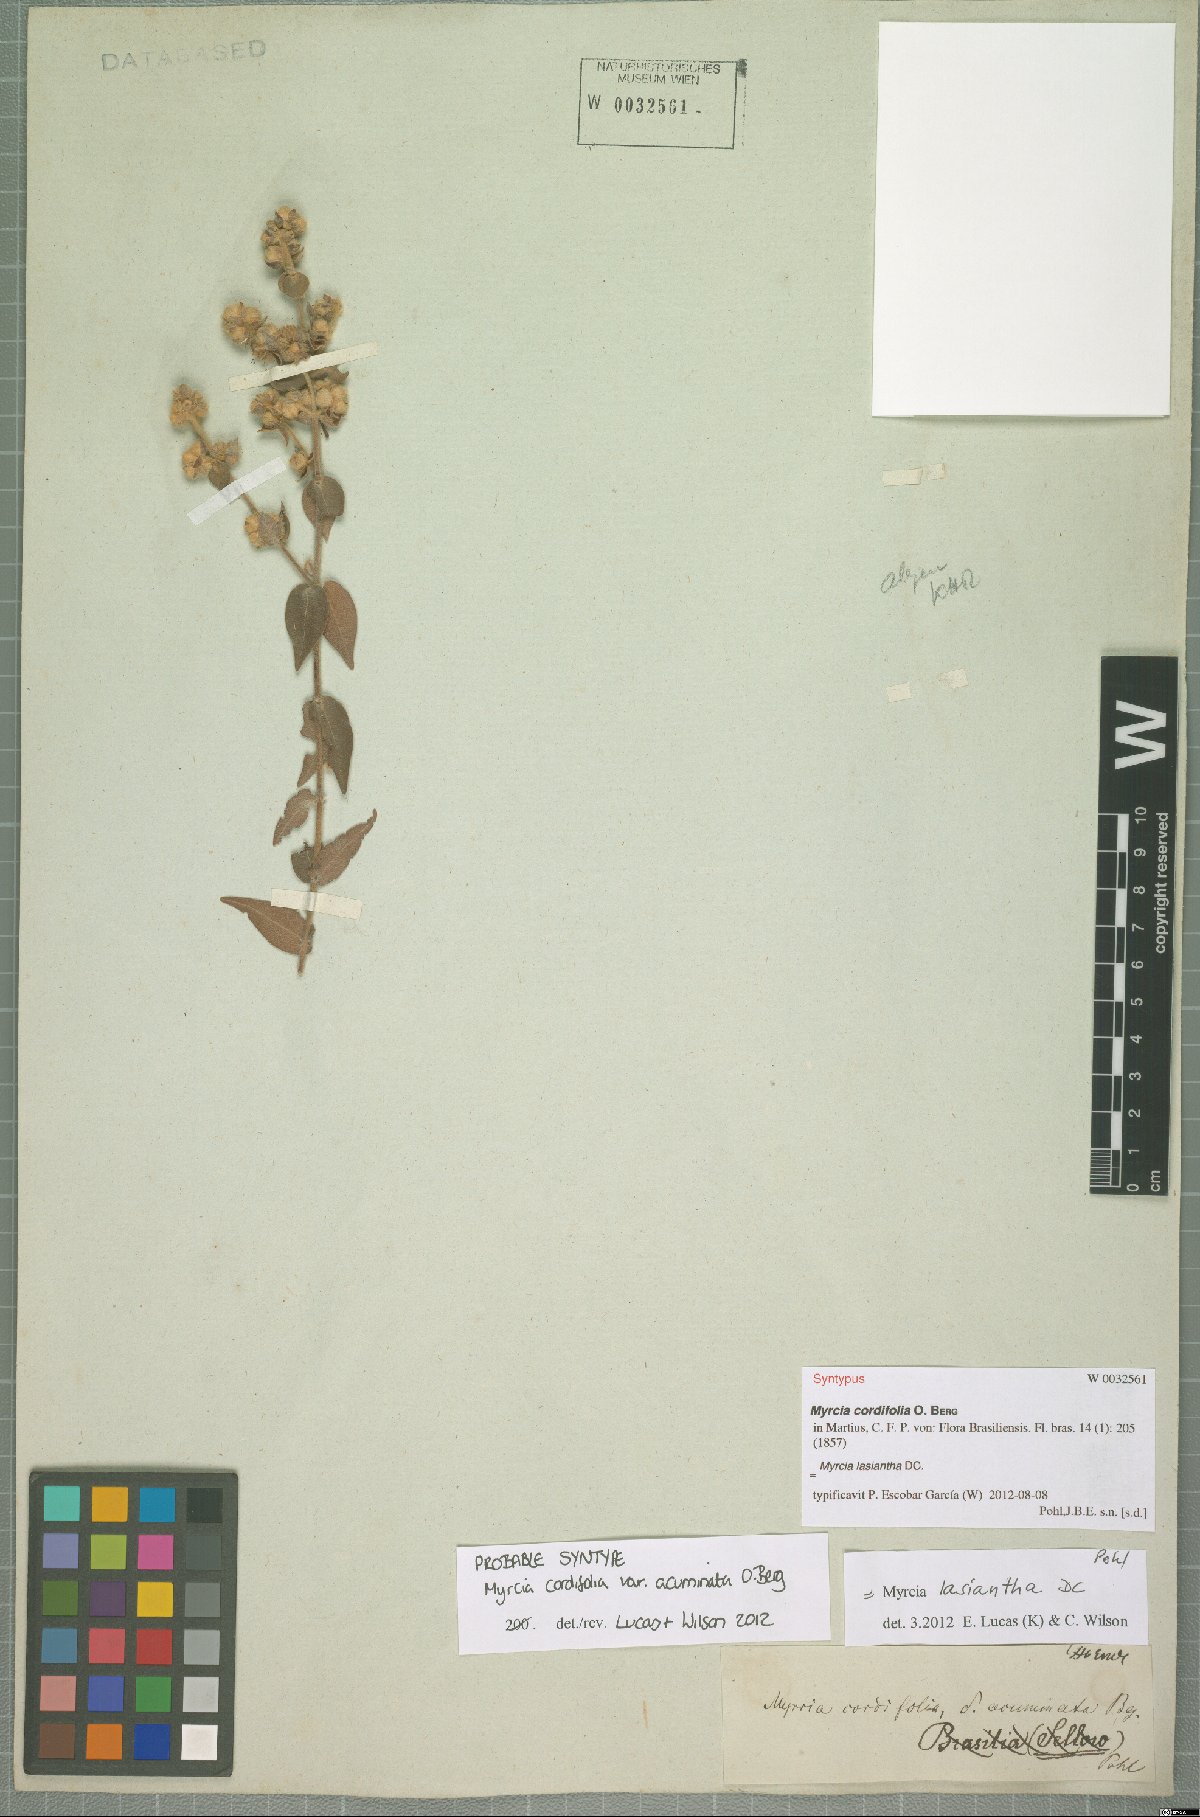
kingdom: Plantae
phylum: Tracheophyta
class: Magnoliopsida
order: Myrtales
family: Myrtaceae
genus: Myrcia
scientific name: Myrcia lasiantha
